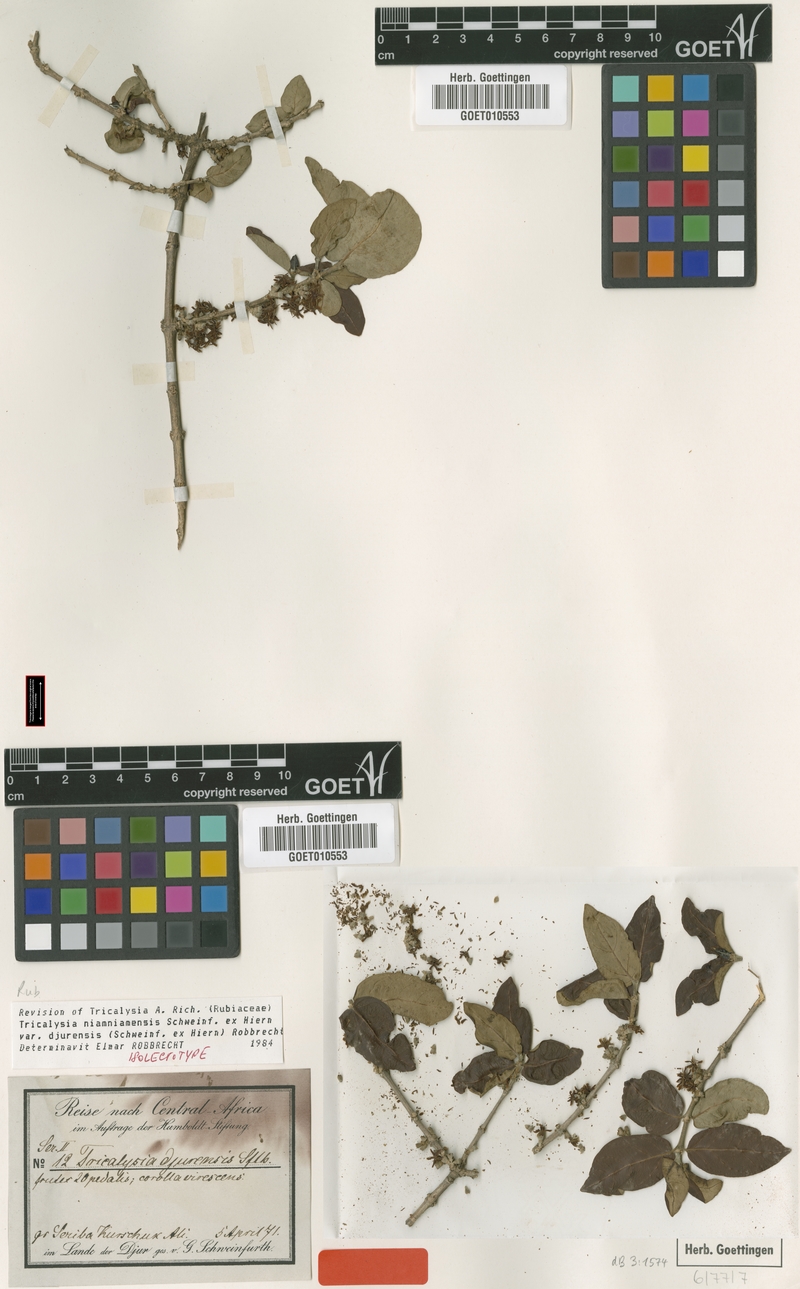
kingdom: Plantae
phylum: Tracheophyta
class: Magnoliopsida
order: Gentianales
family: Rubiaceae
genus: Tricalysia
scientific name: Tricalysia niamniamensis
